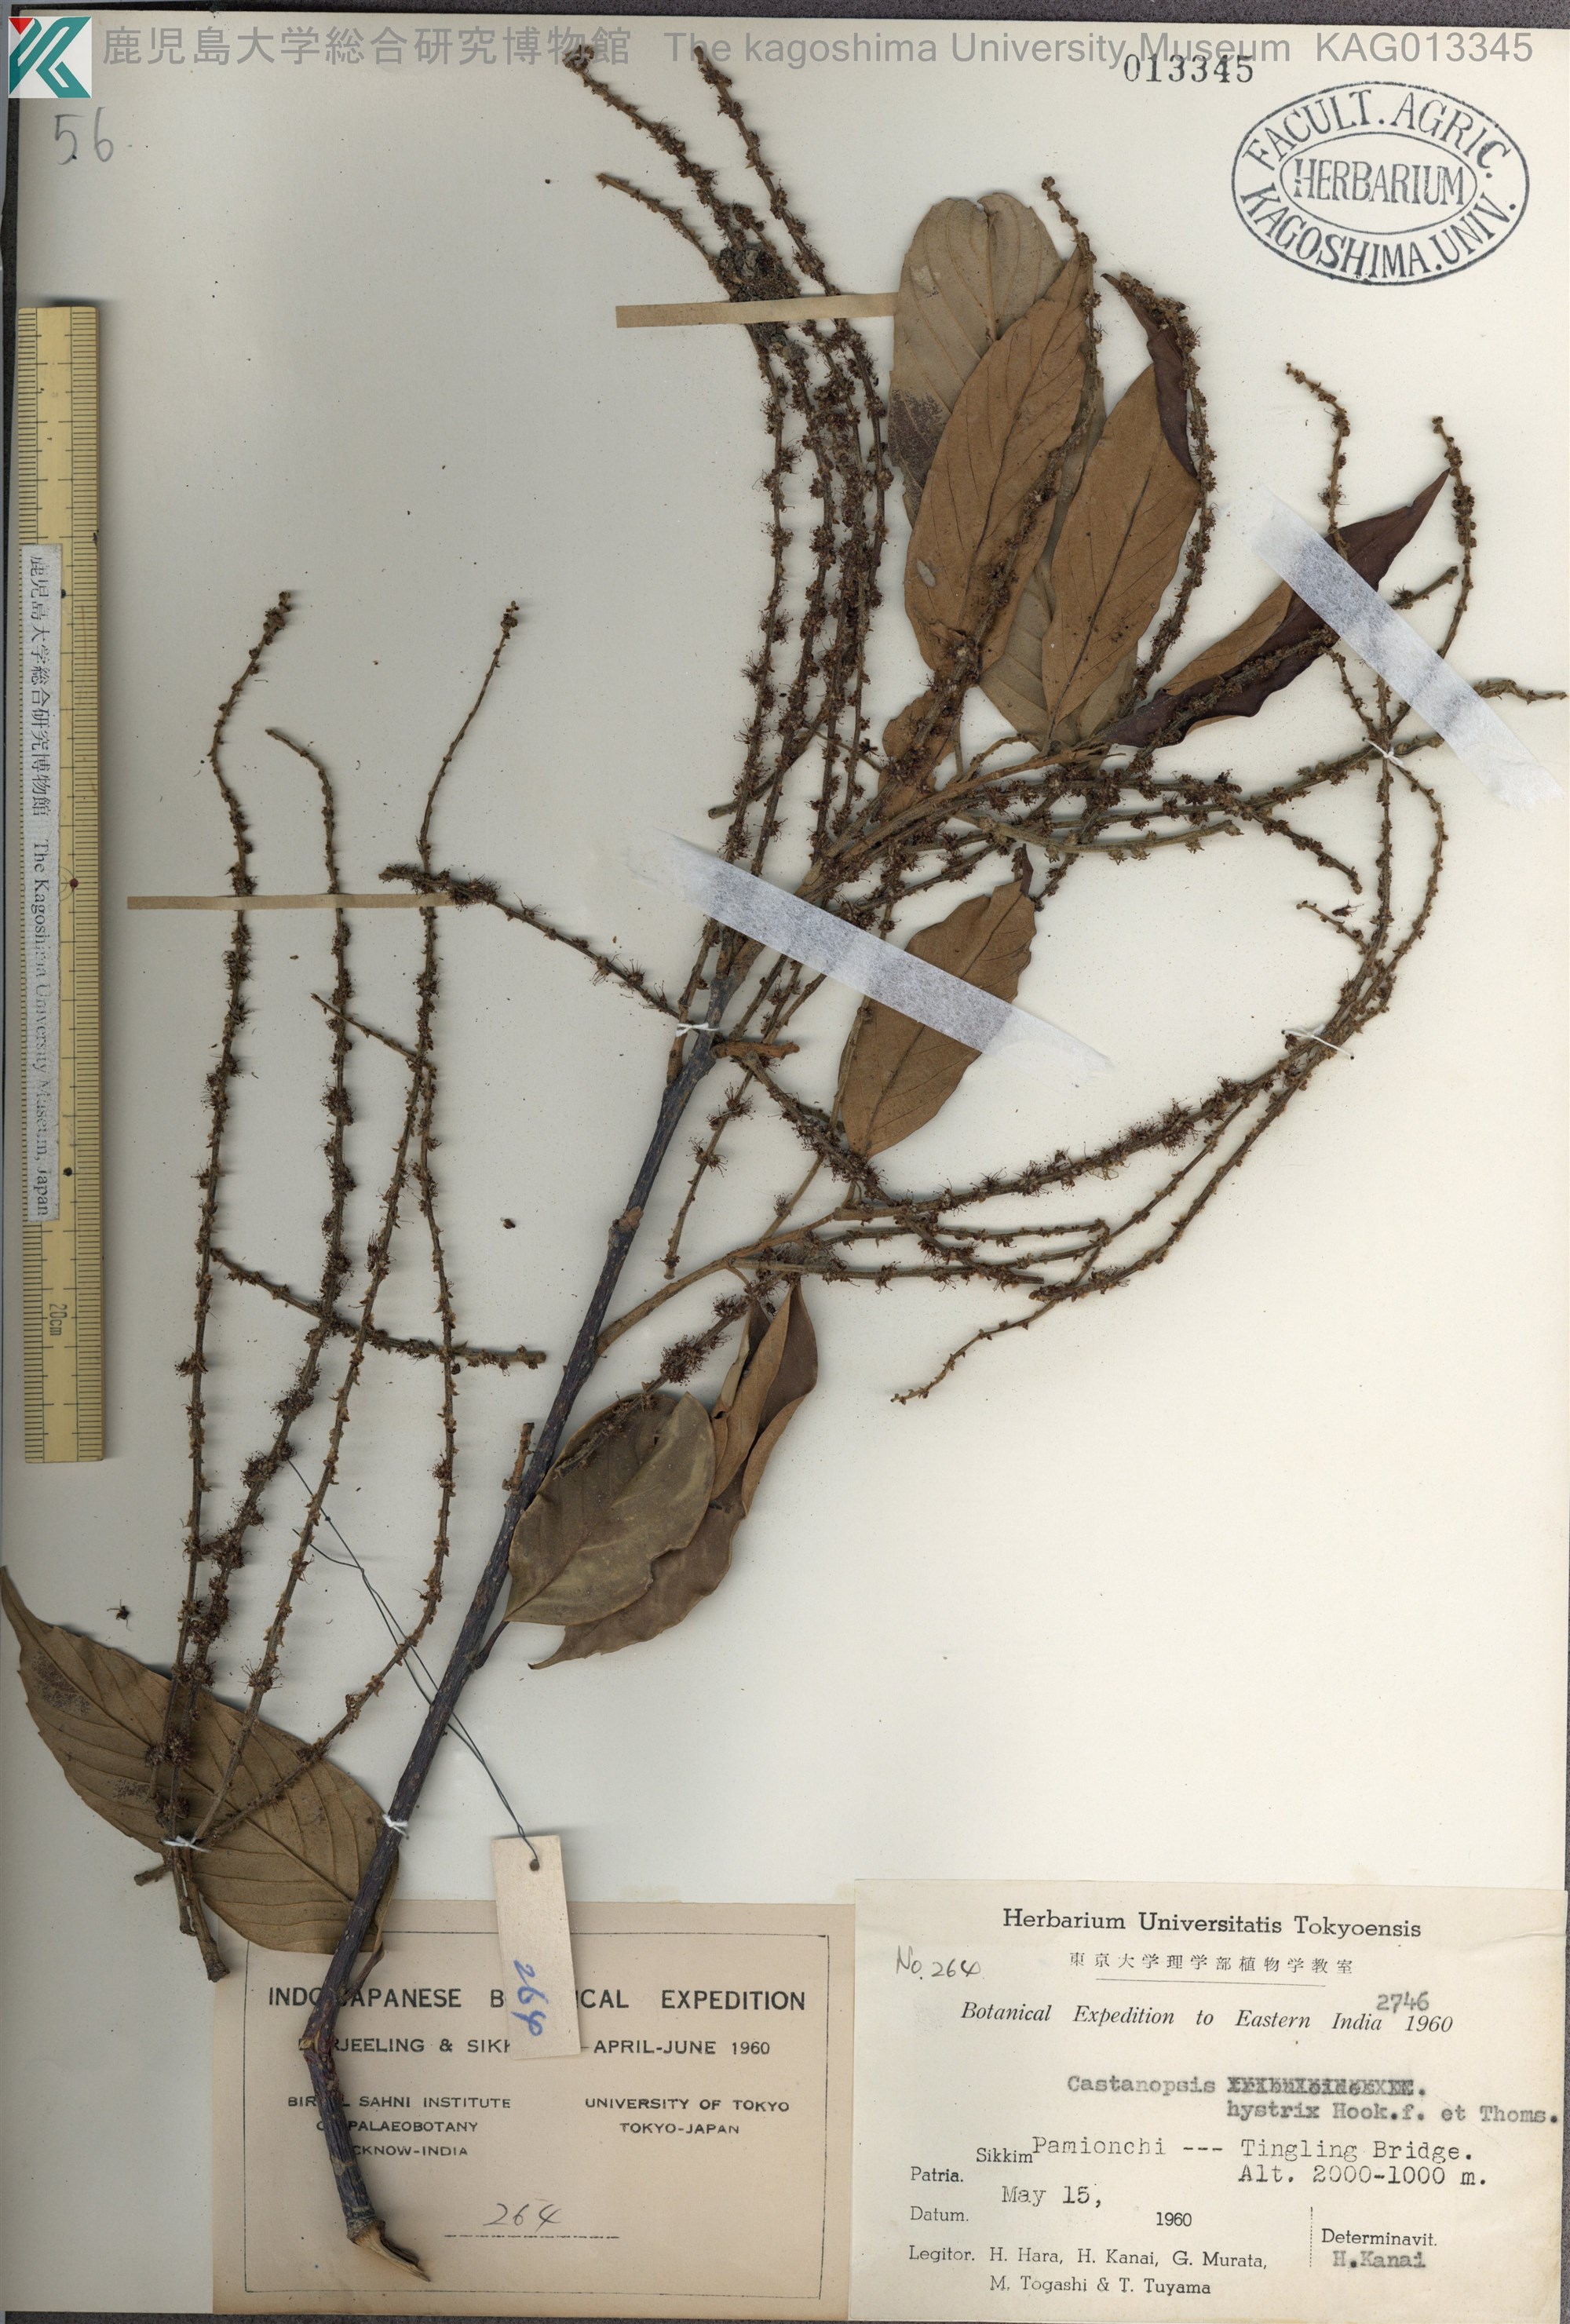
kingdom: Plantae
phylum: Tracheophyta
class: Magnoliopsida
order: Fagales
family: Fagaceae
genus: Castanopsis
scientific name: Castanopsis hystrix
